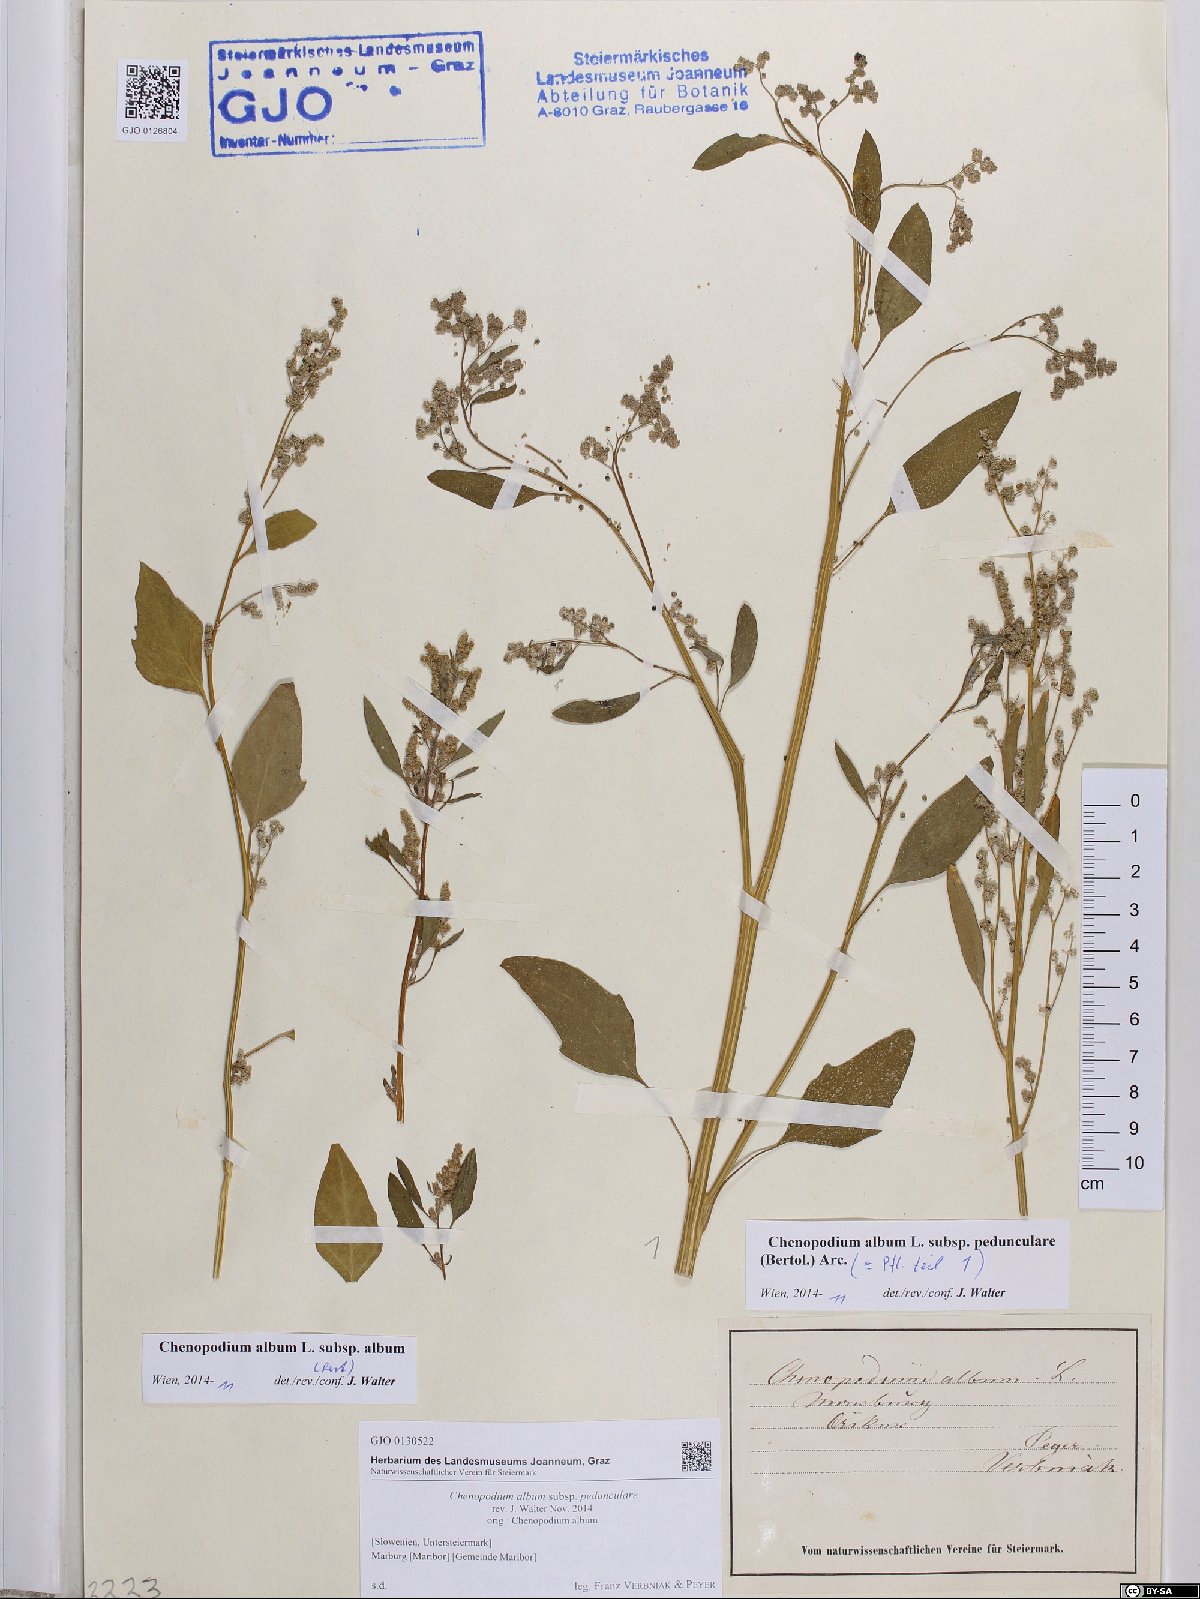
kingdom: Plantae
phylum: Tracheophyta
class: Magnoliopsida
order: Caryophyllales
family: Amaranthaceae
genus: Chenopodium
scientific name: Chenopodium album
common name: Fat-hen
